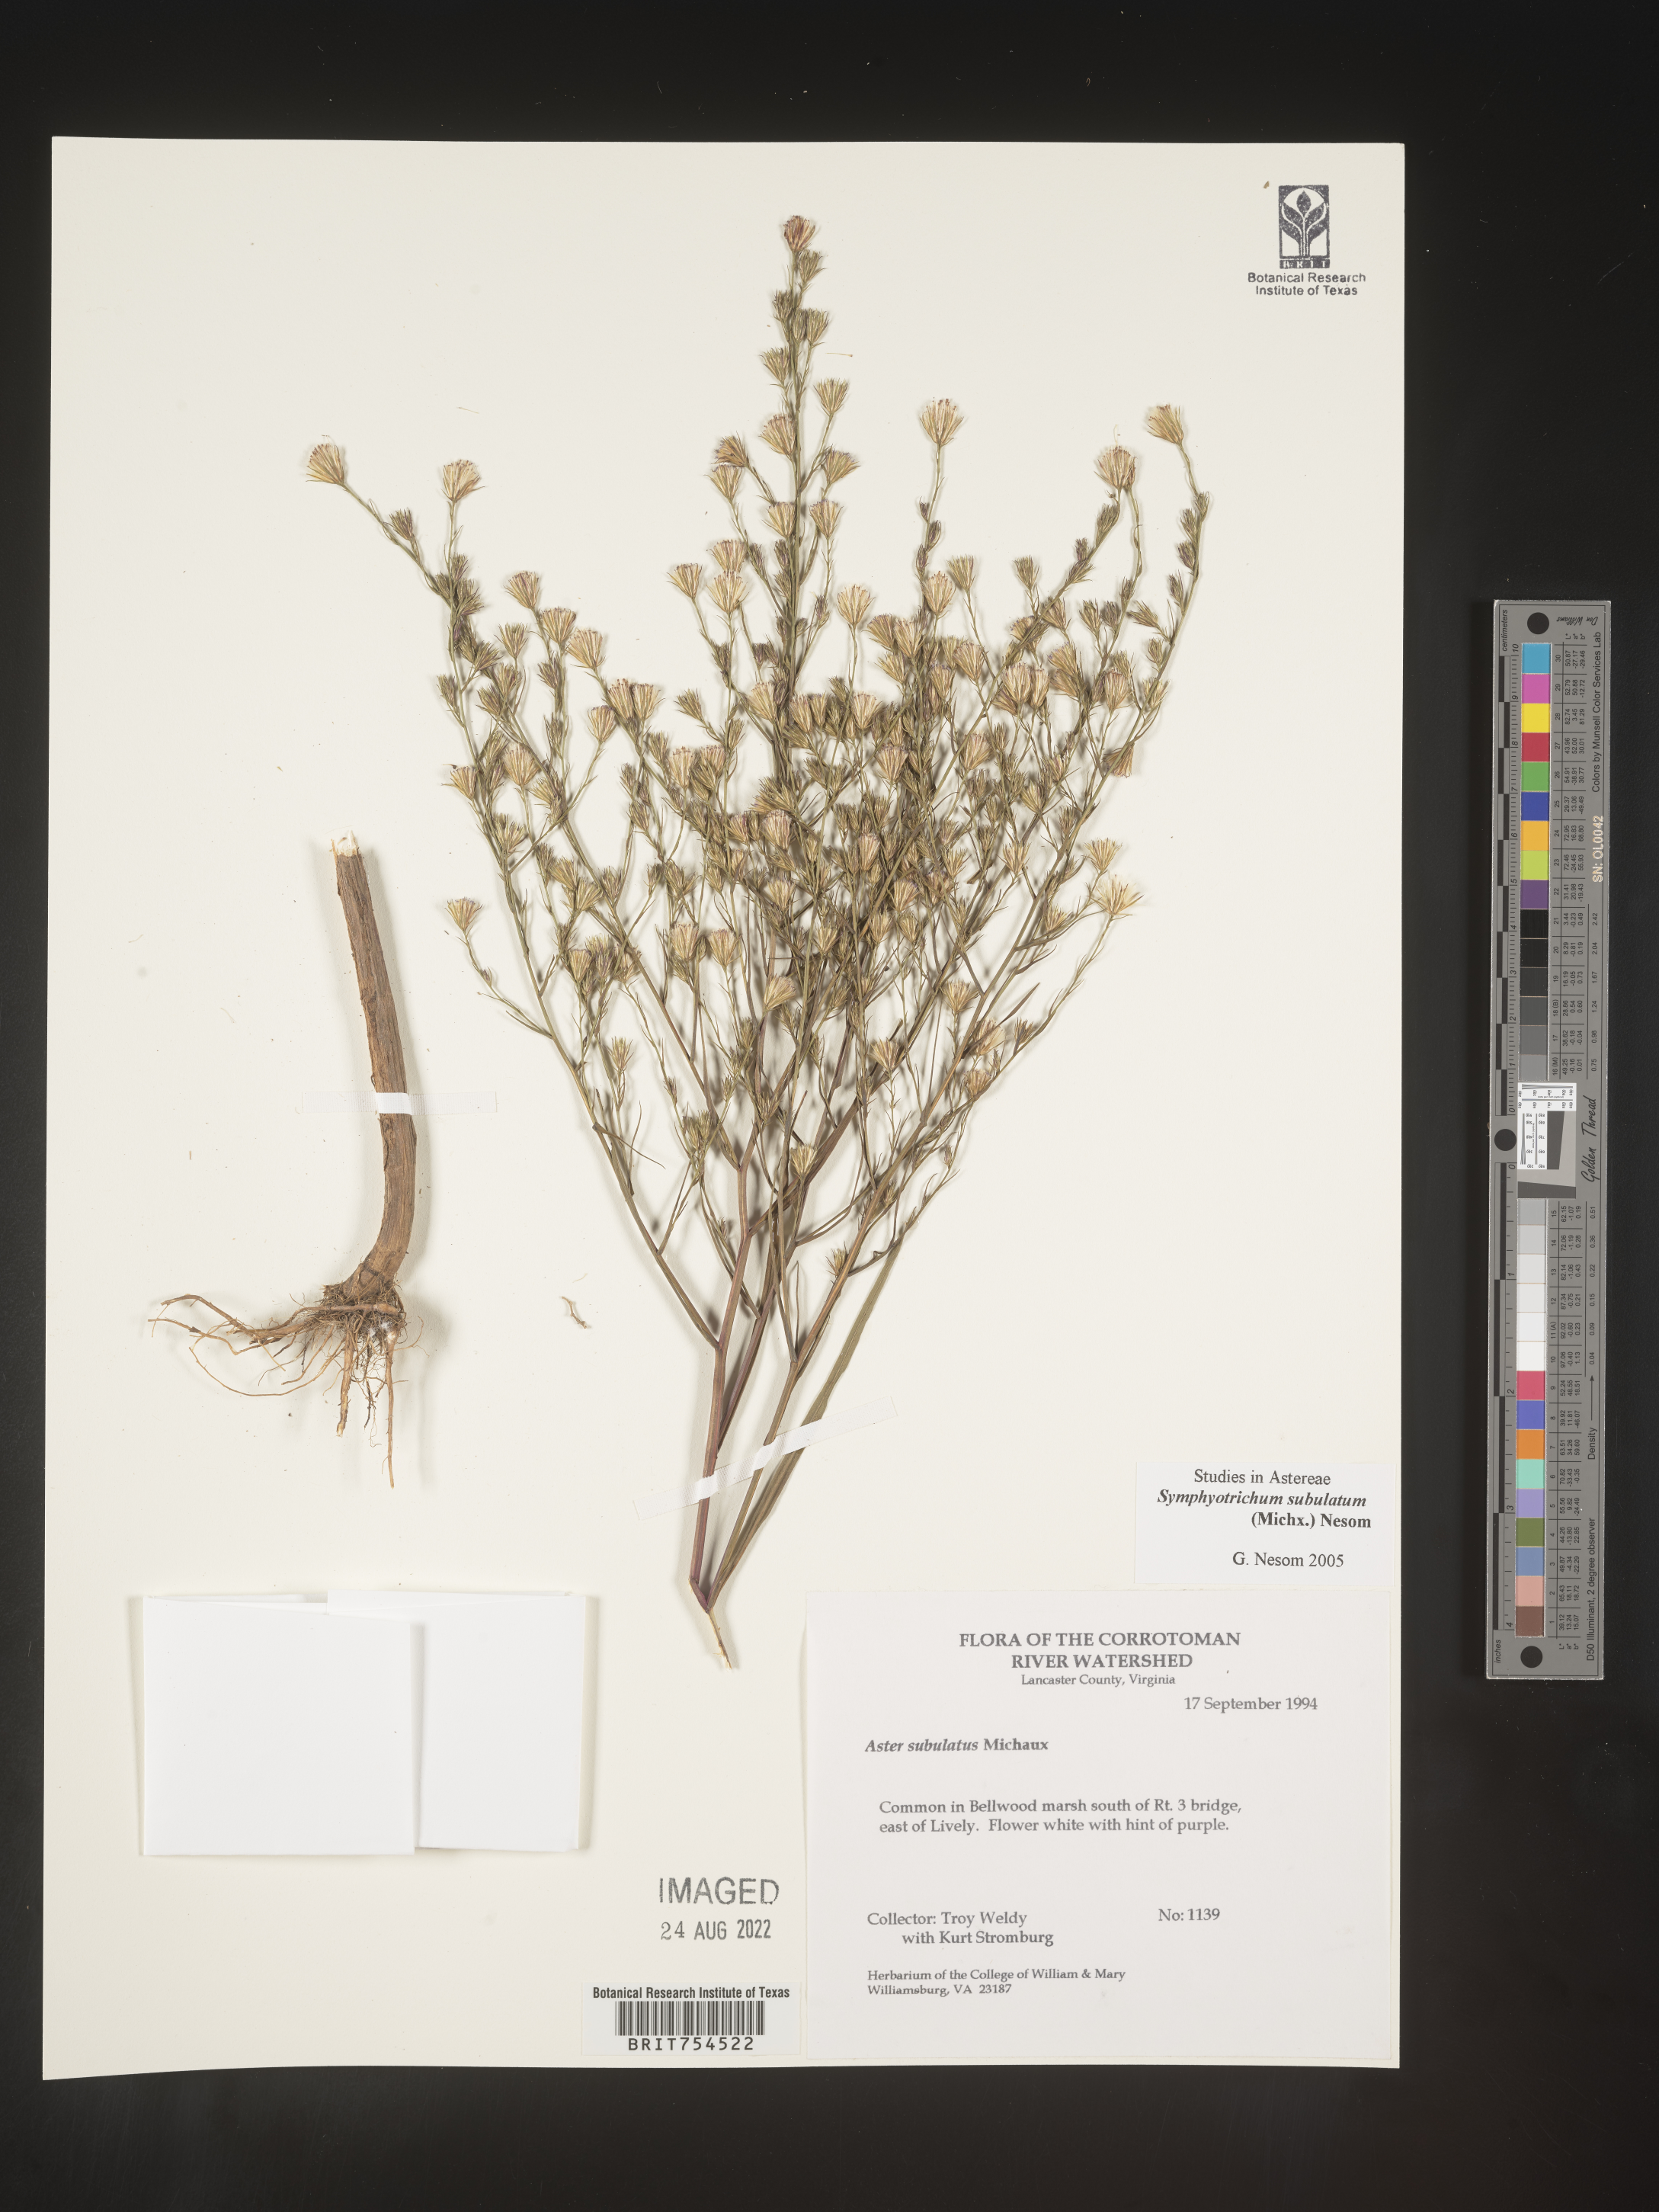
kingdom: Plantae
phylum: Tracheophyta
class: Magnoliopsida
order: Asterales
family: Asteraceae
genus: Symphyotrichum
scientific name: Symphyotrichum subulatum
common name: Annual saltmarsh aster
